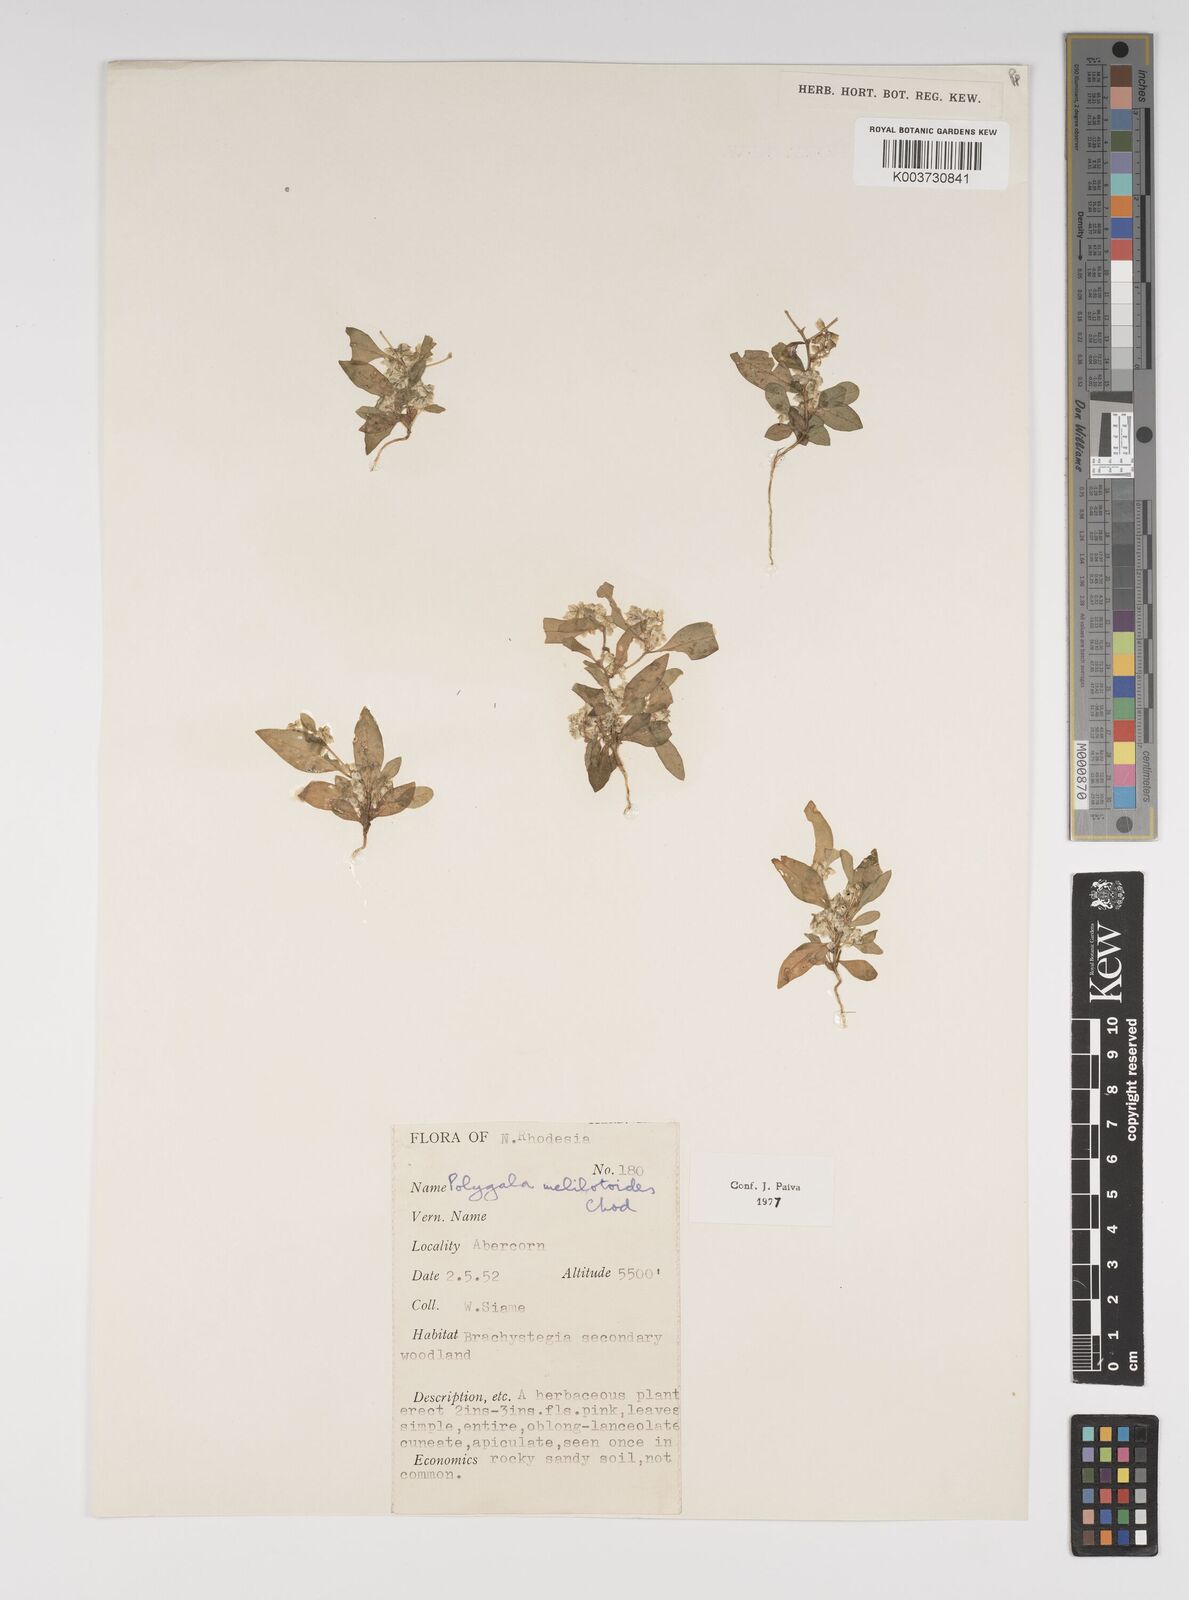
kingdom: Plantae
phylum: Tracheophyta
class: Magnoliopsida
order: Fabales
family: Polygalaceae
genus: Polygala
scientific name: Polygala melilotoides
